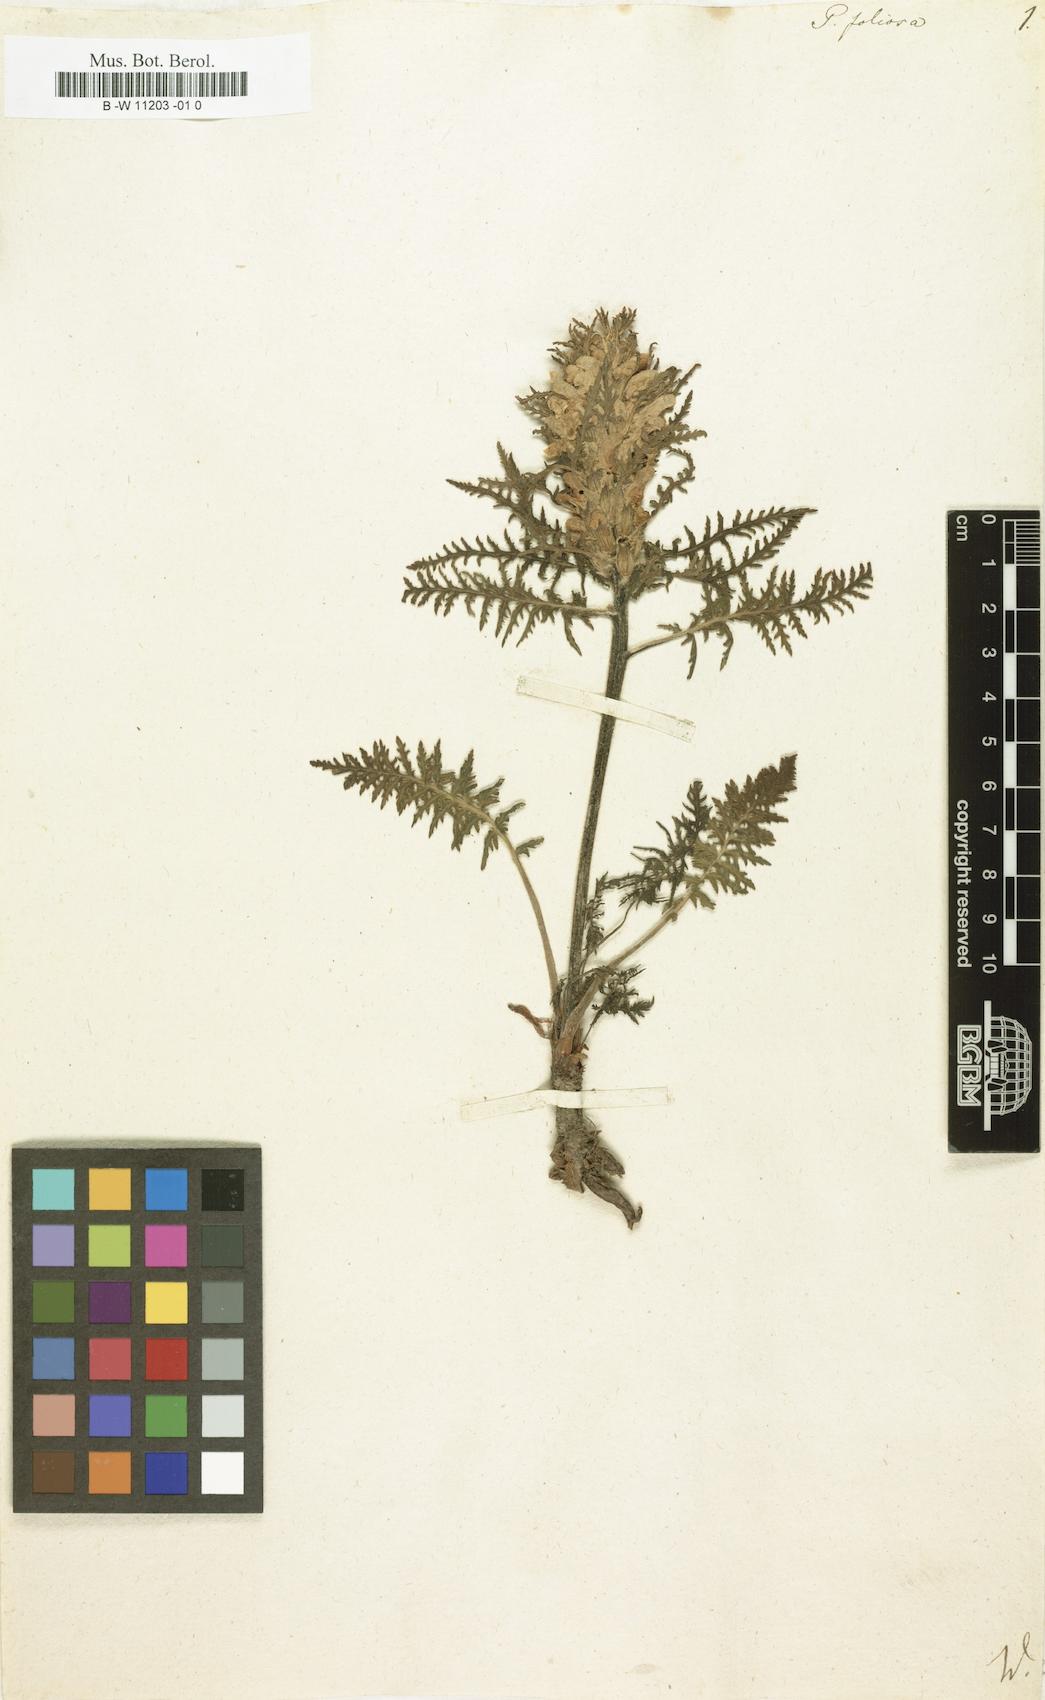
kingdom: Plantae
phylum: Tracheophyta
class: Magnoliopsida
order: Lamiales
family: Orobanchaceae
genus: Pedicularis
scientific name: Pedicularis foliosa
